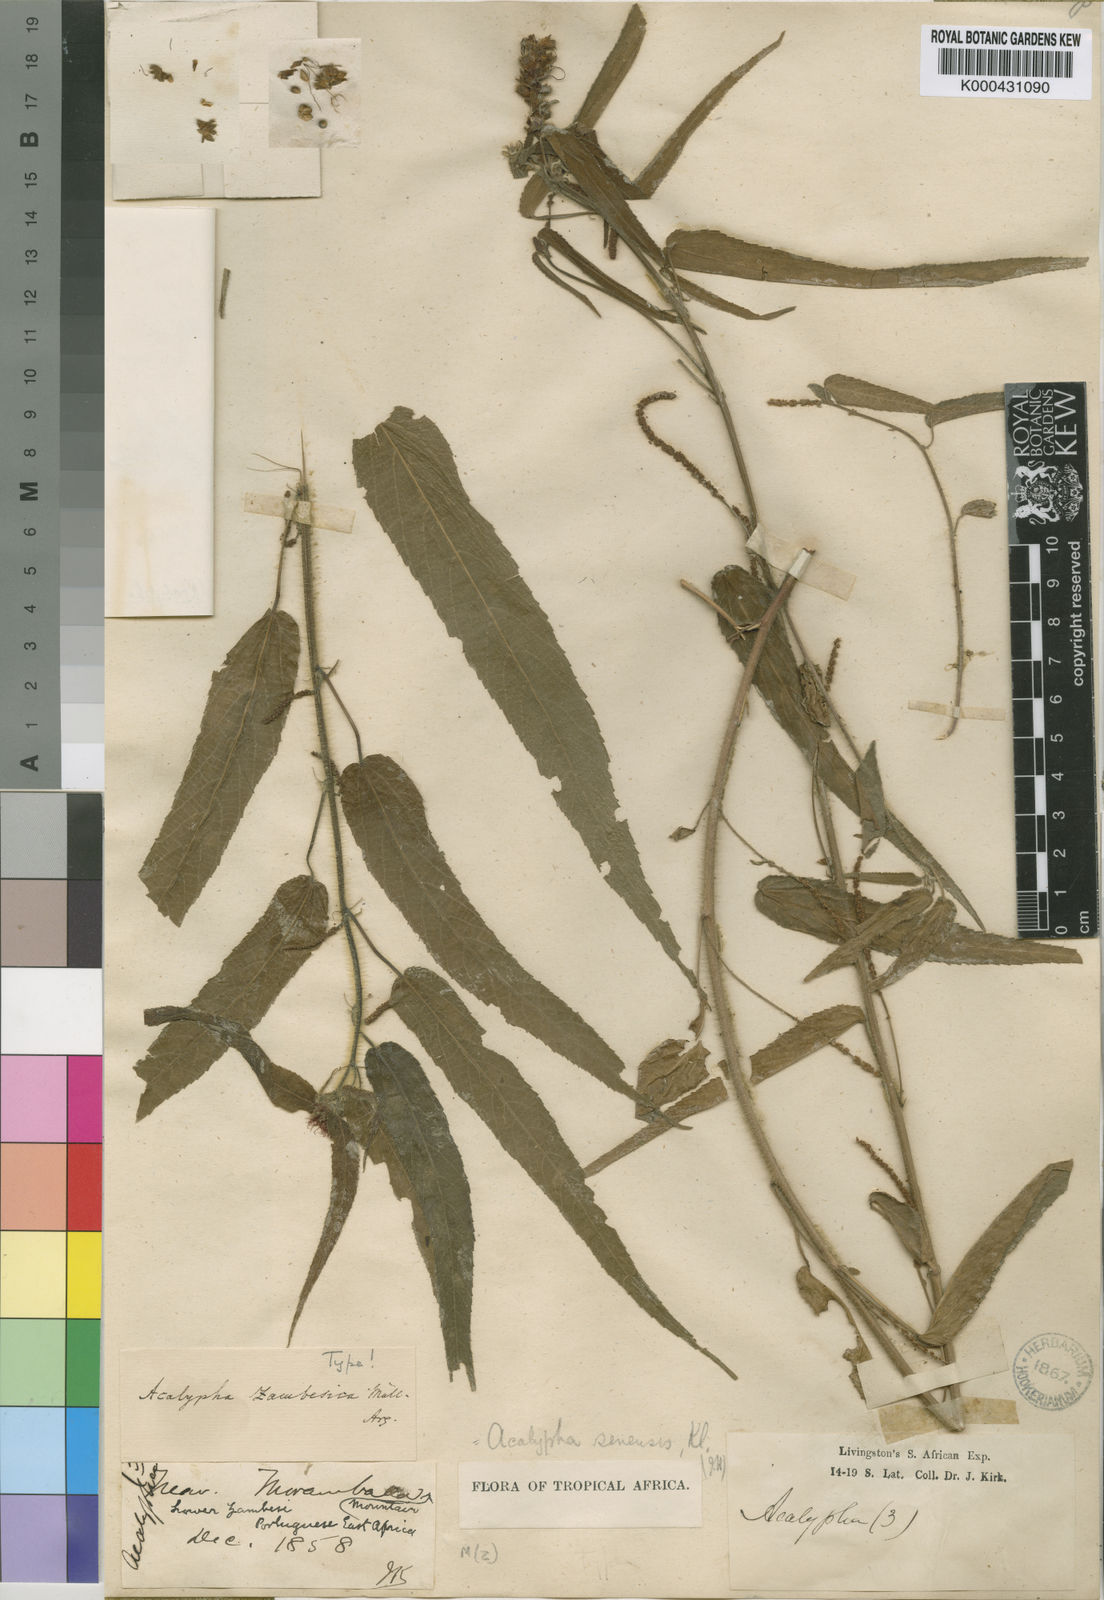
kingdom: Plantae
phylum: Tracheophyta
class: Magnoliopsida
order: Malpighiales
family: Euphorbiaceae
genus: Acalypha
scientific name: Acalypha petiolaris
